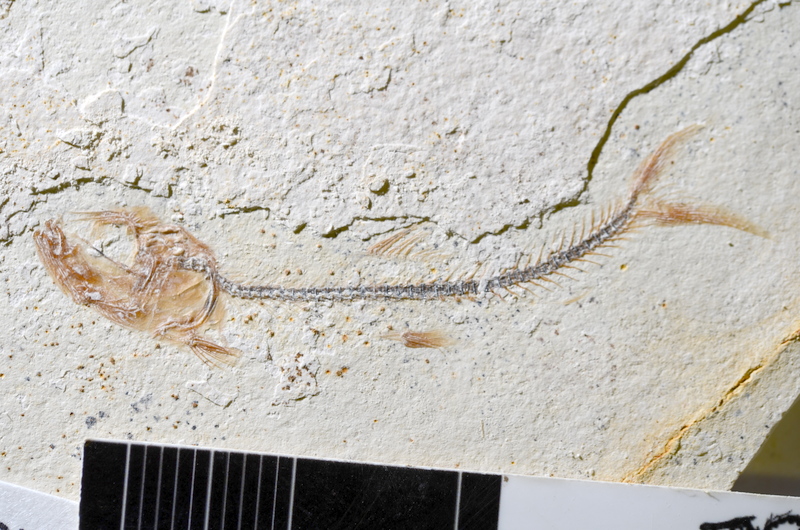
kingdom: Animalia
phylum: Chordata
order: Salmoniformes
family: Orthogonikleithridae
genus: Orthogonikleithrus
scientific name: Orthogonikleithrus hoelli
